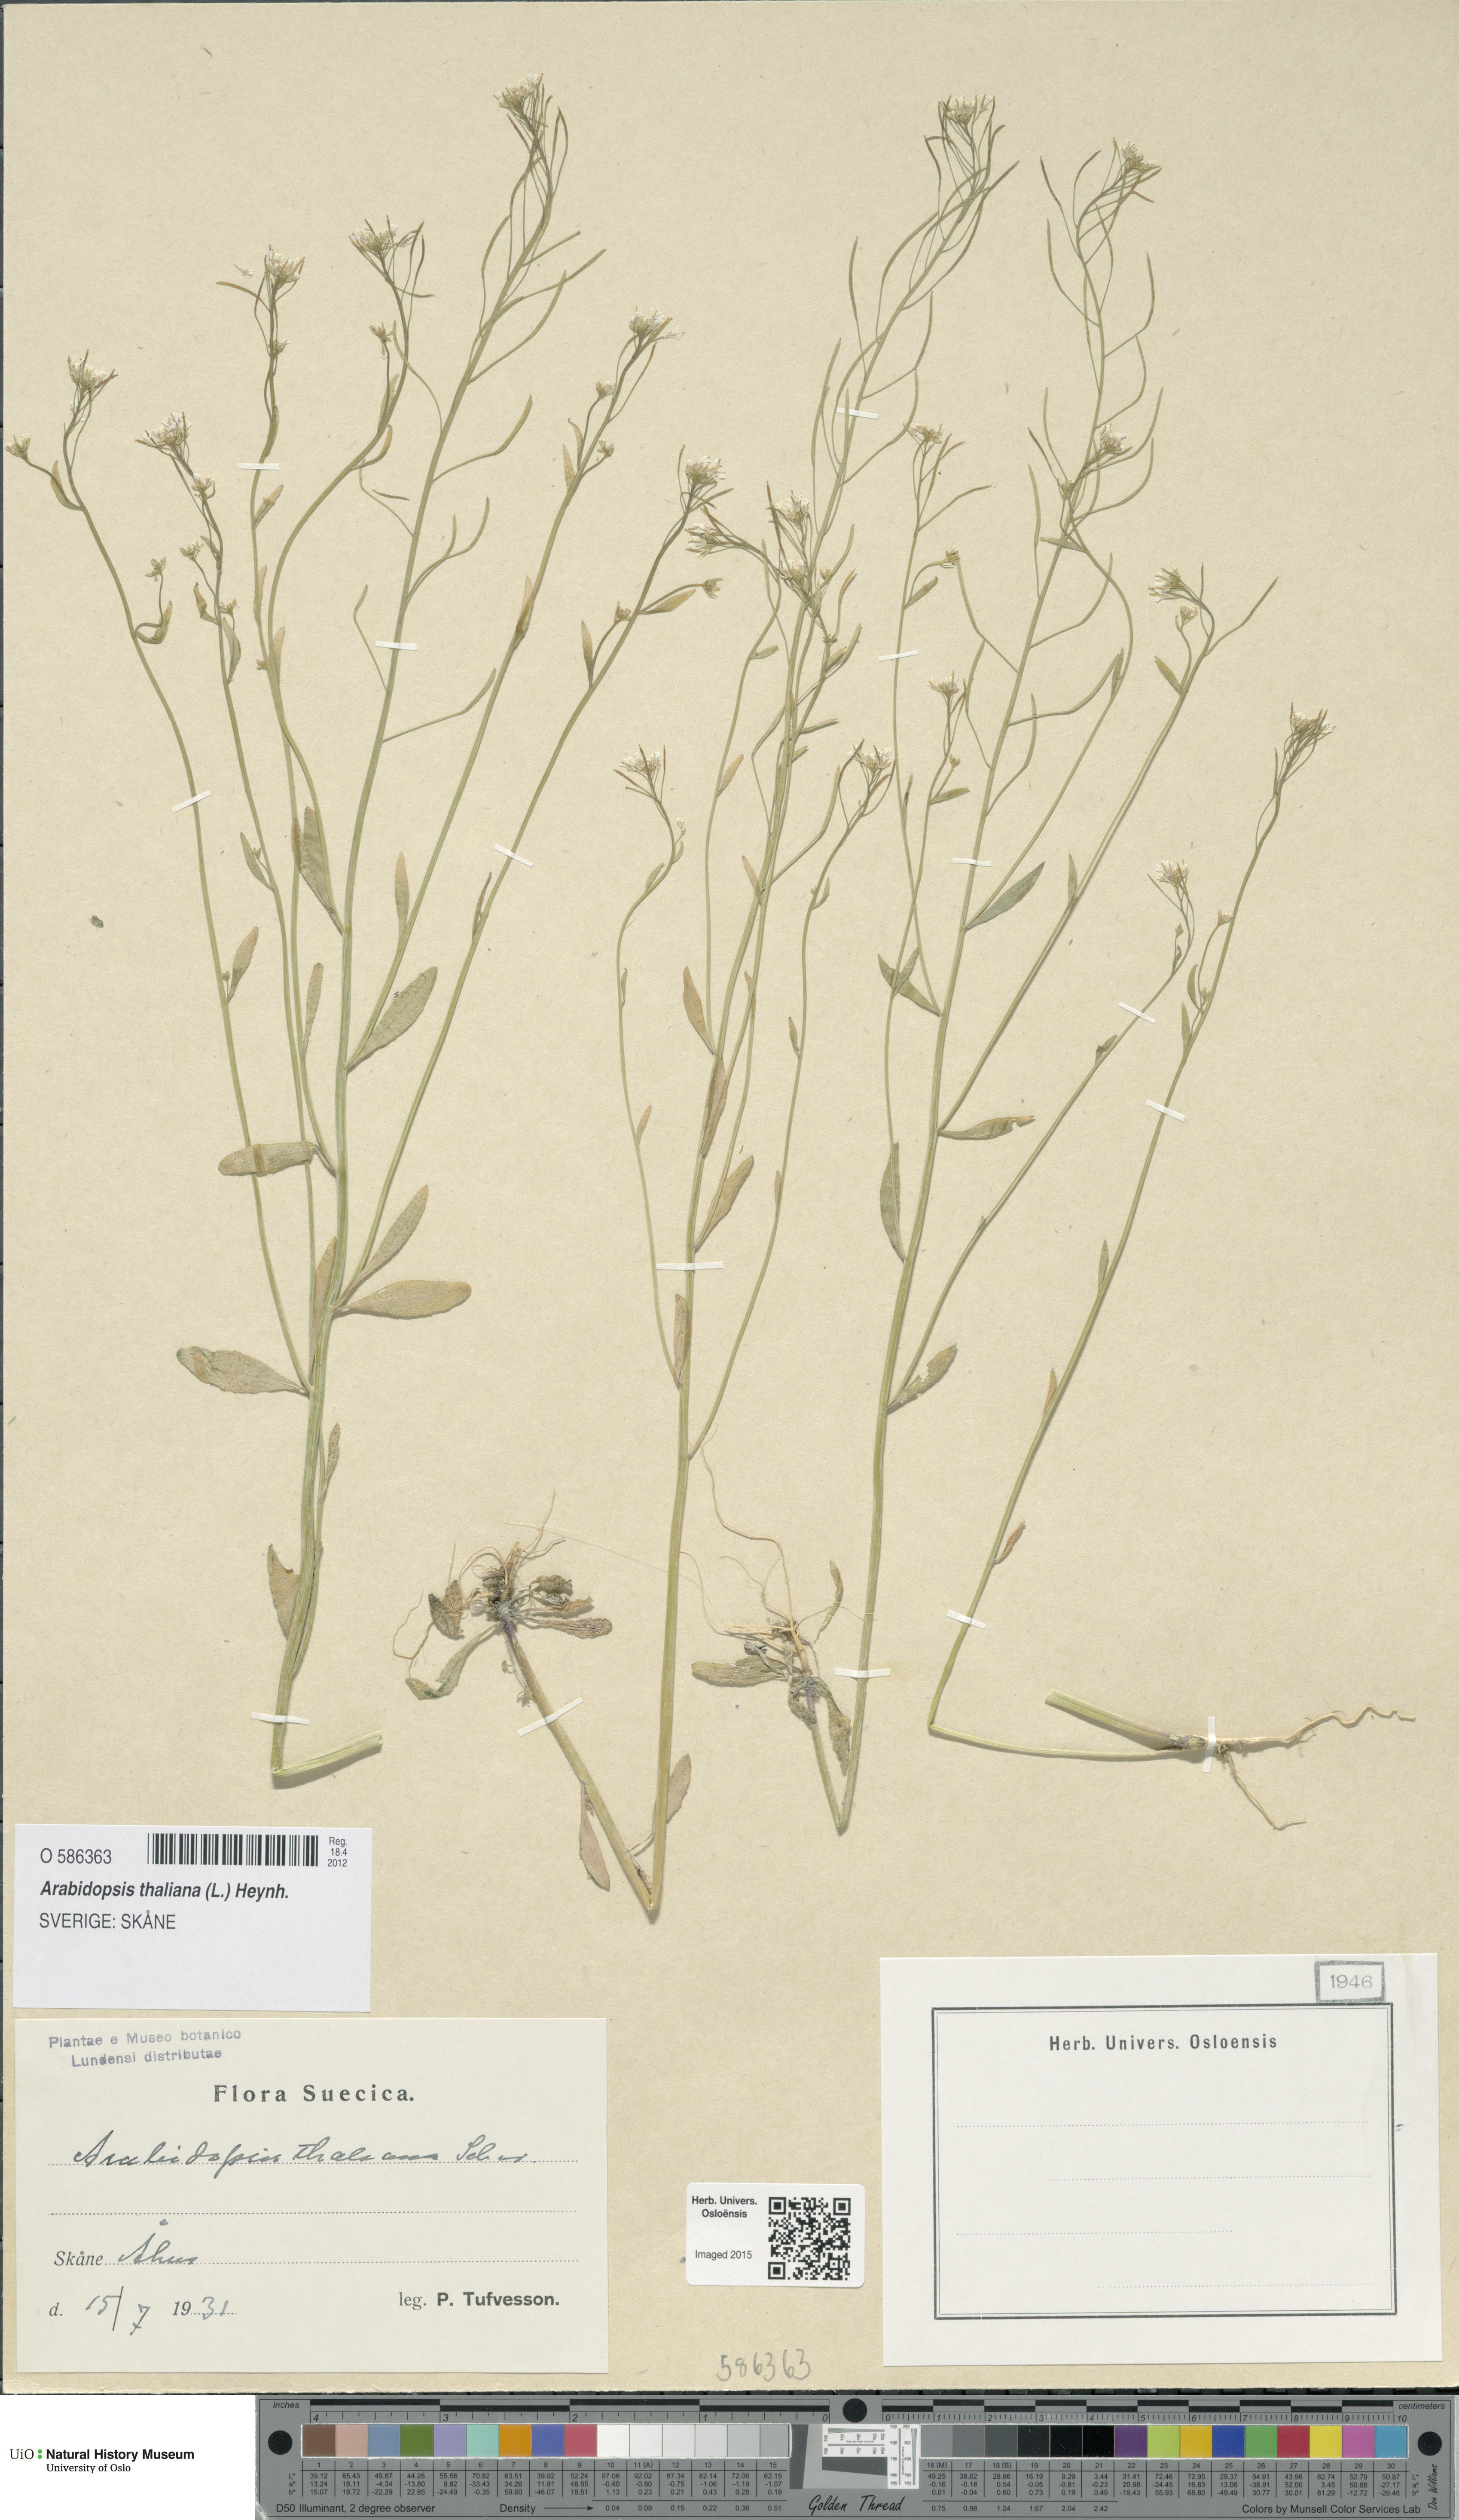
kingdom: Plantae
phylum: Tracheophyta
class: Magnoliopsida
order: Brassicales
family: Brassicaceae
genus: Arabidopsis
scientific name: Arabidopsis thaliana
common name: Thale cress
